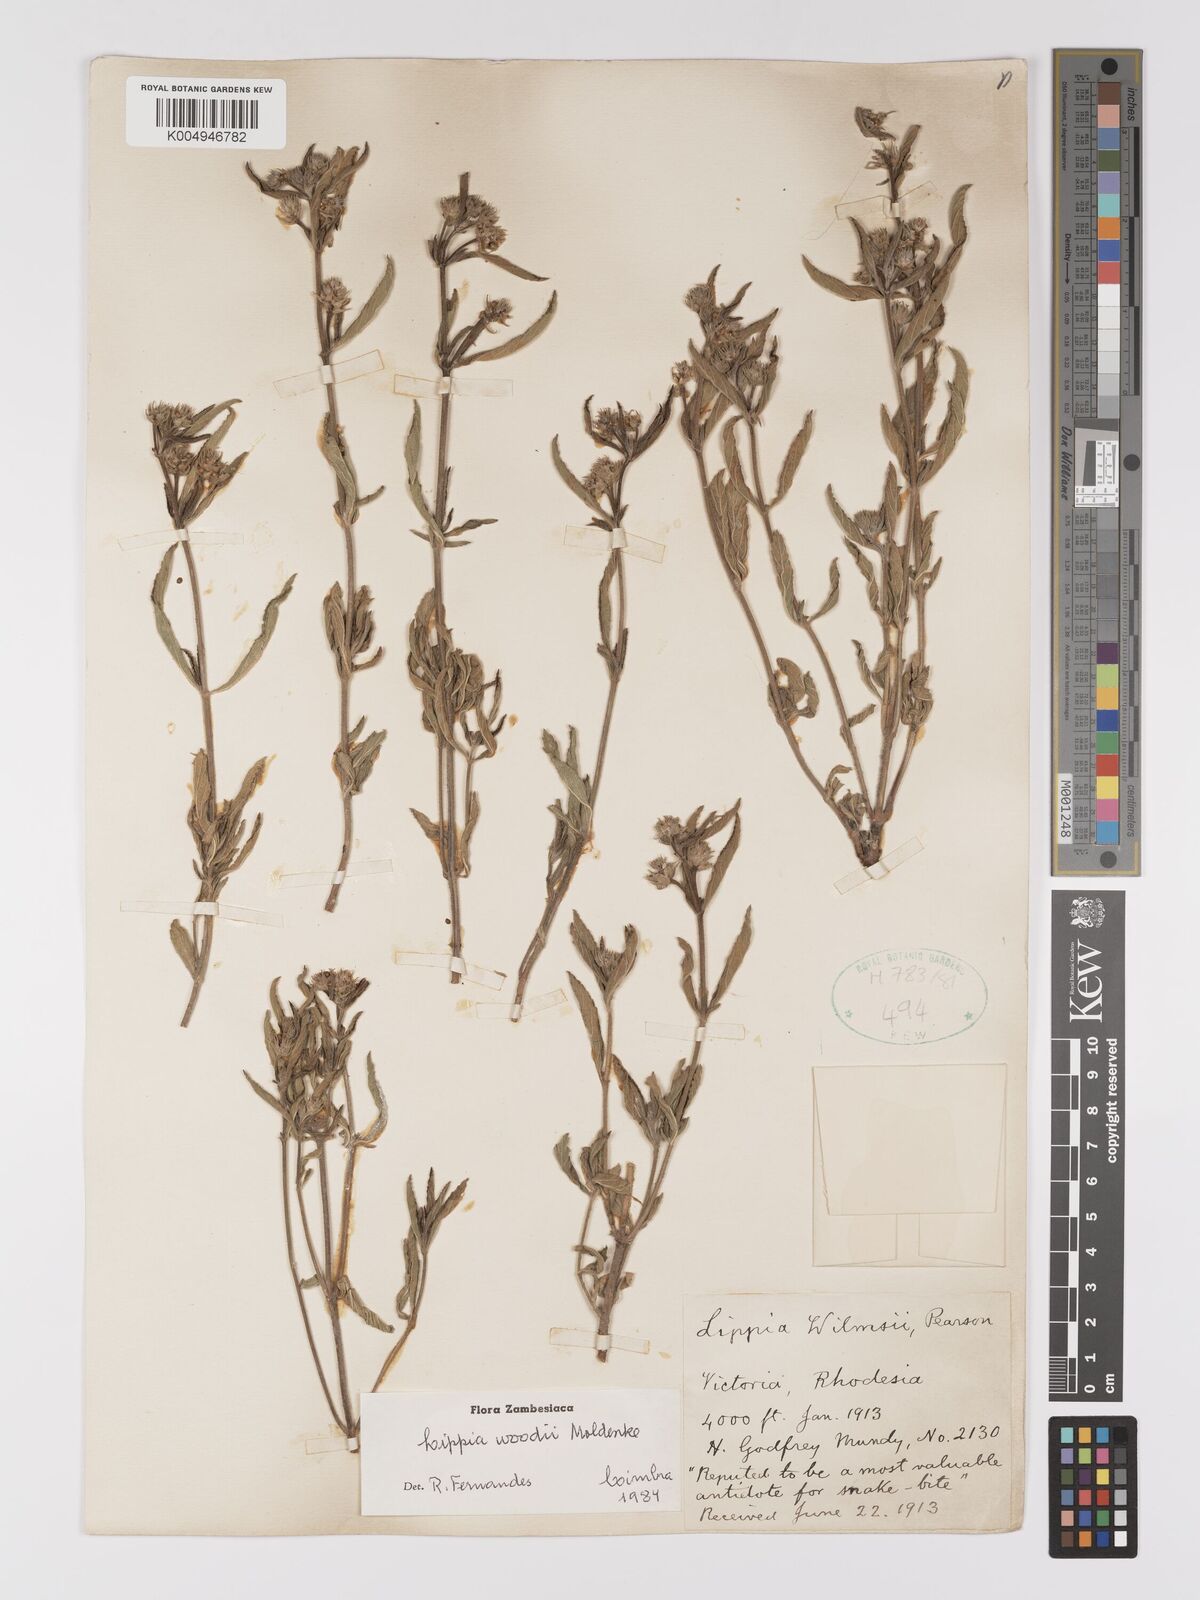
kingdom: Plantae
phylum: Tracheophyta
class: Magnoliopsida
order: Lamiales
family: Verbenaceae
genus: Lippia
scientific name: Lippia woodii
